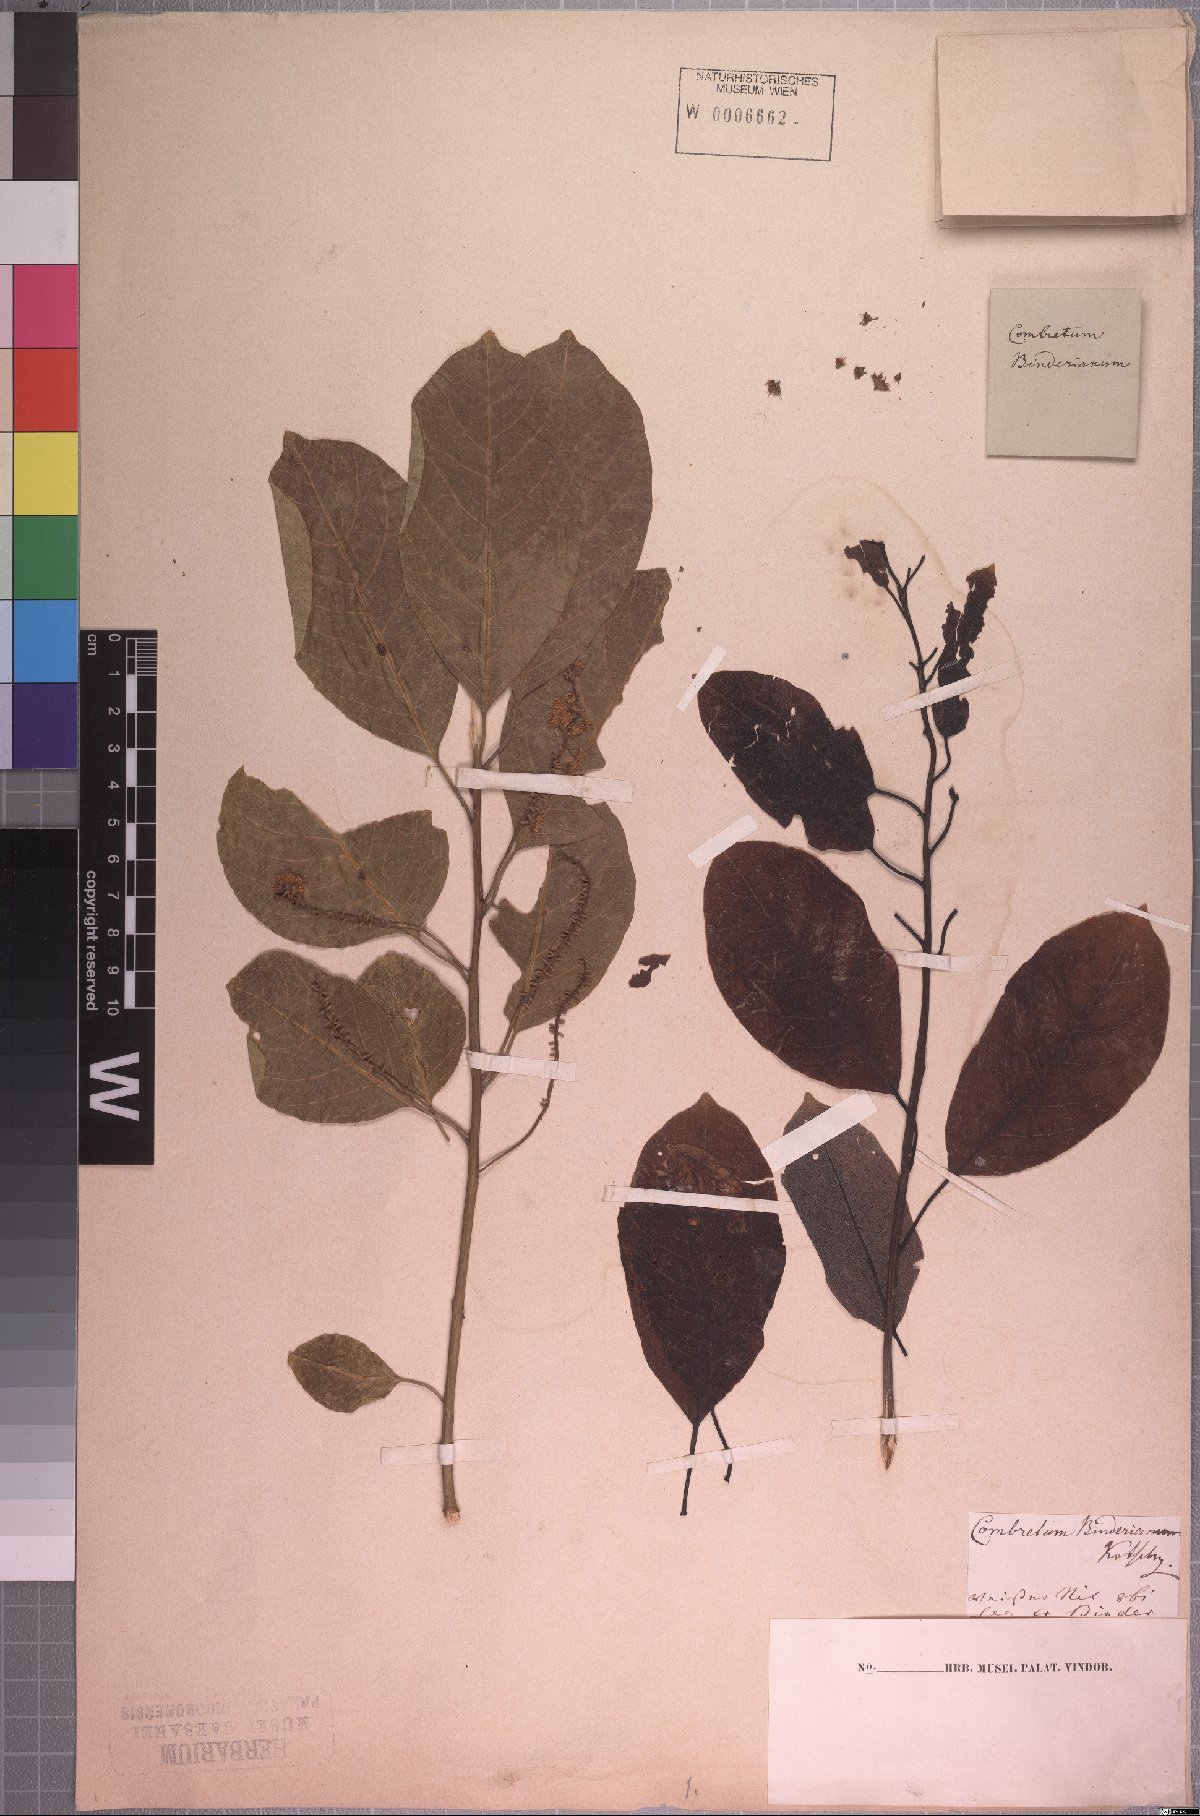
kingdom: Plantae
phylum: Tracheophyta
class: Magnoliopsida
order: Myrtales
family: Combretaceae
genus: Combretum
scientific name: Combretum collinum
